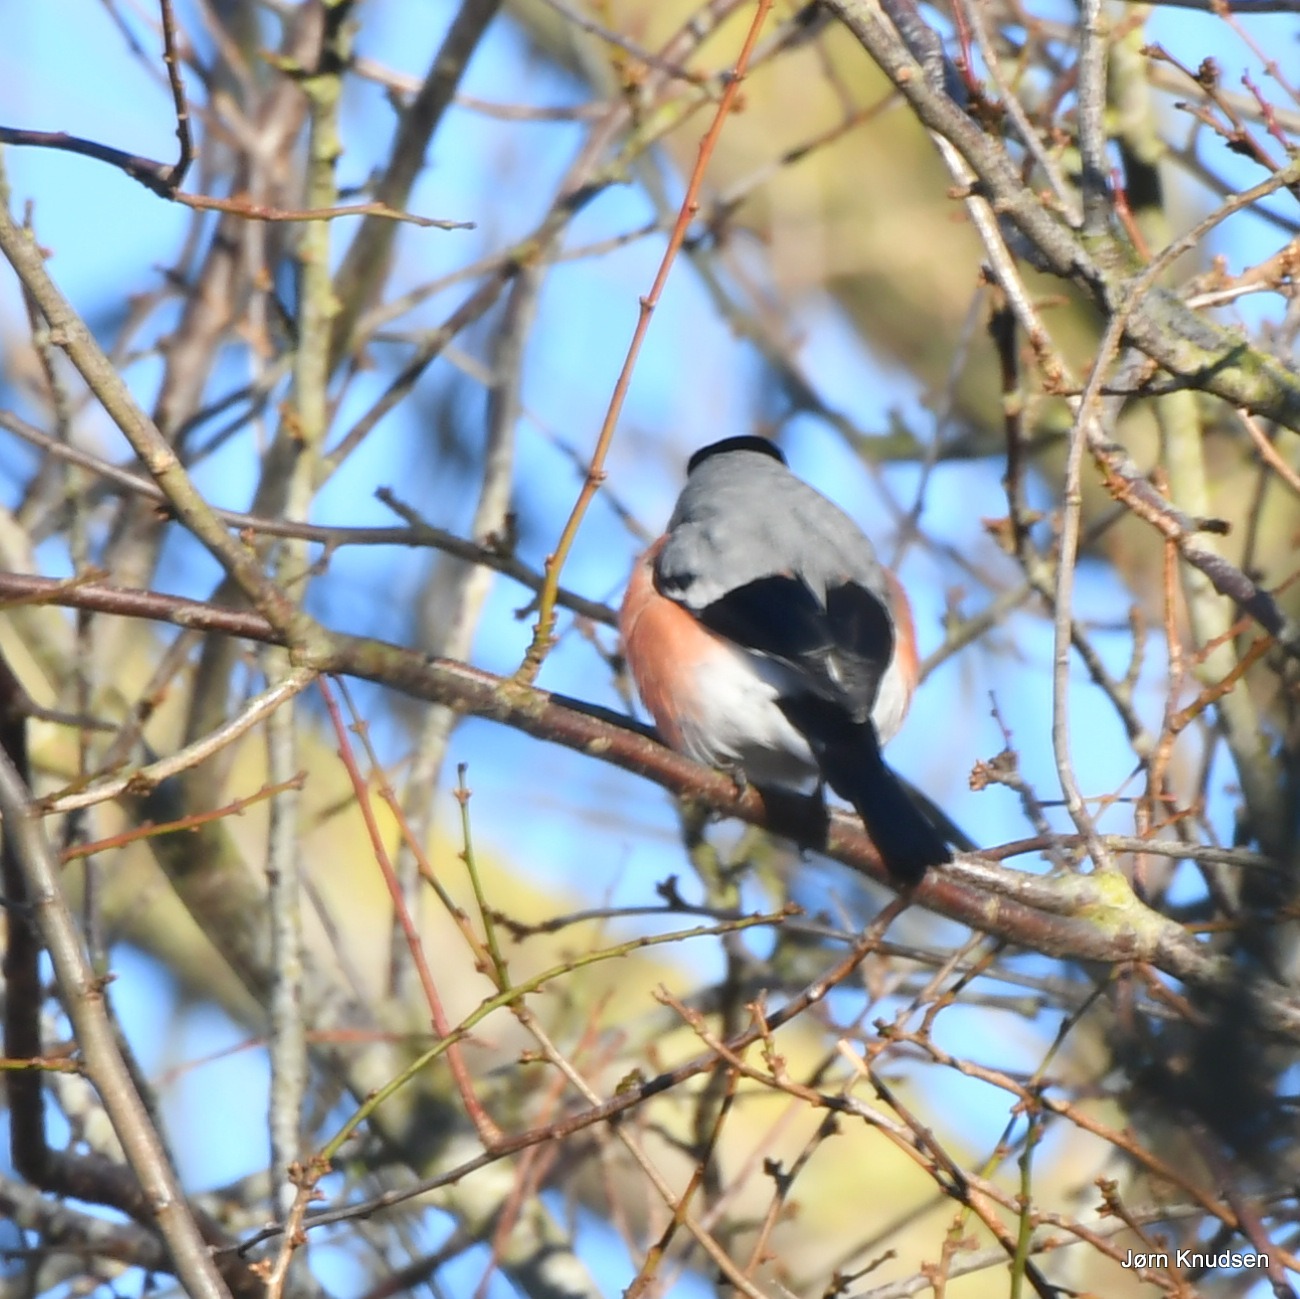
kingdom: Animalia
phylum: Chordata
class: Aves
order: Passeriformes
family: Fringillidae
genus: Pyrrhula
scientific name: Pyrrhula pyrrhula
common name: Dompap
